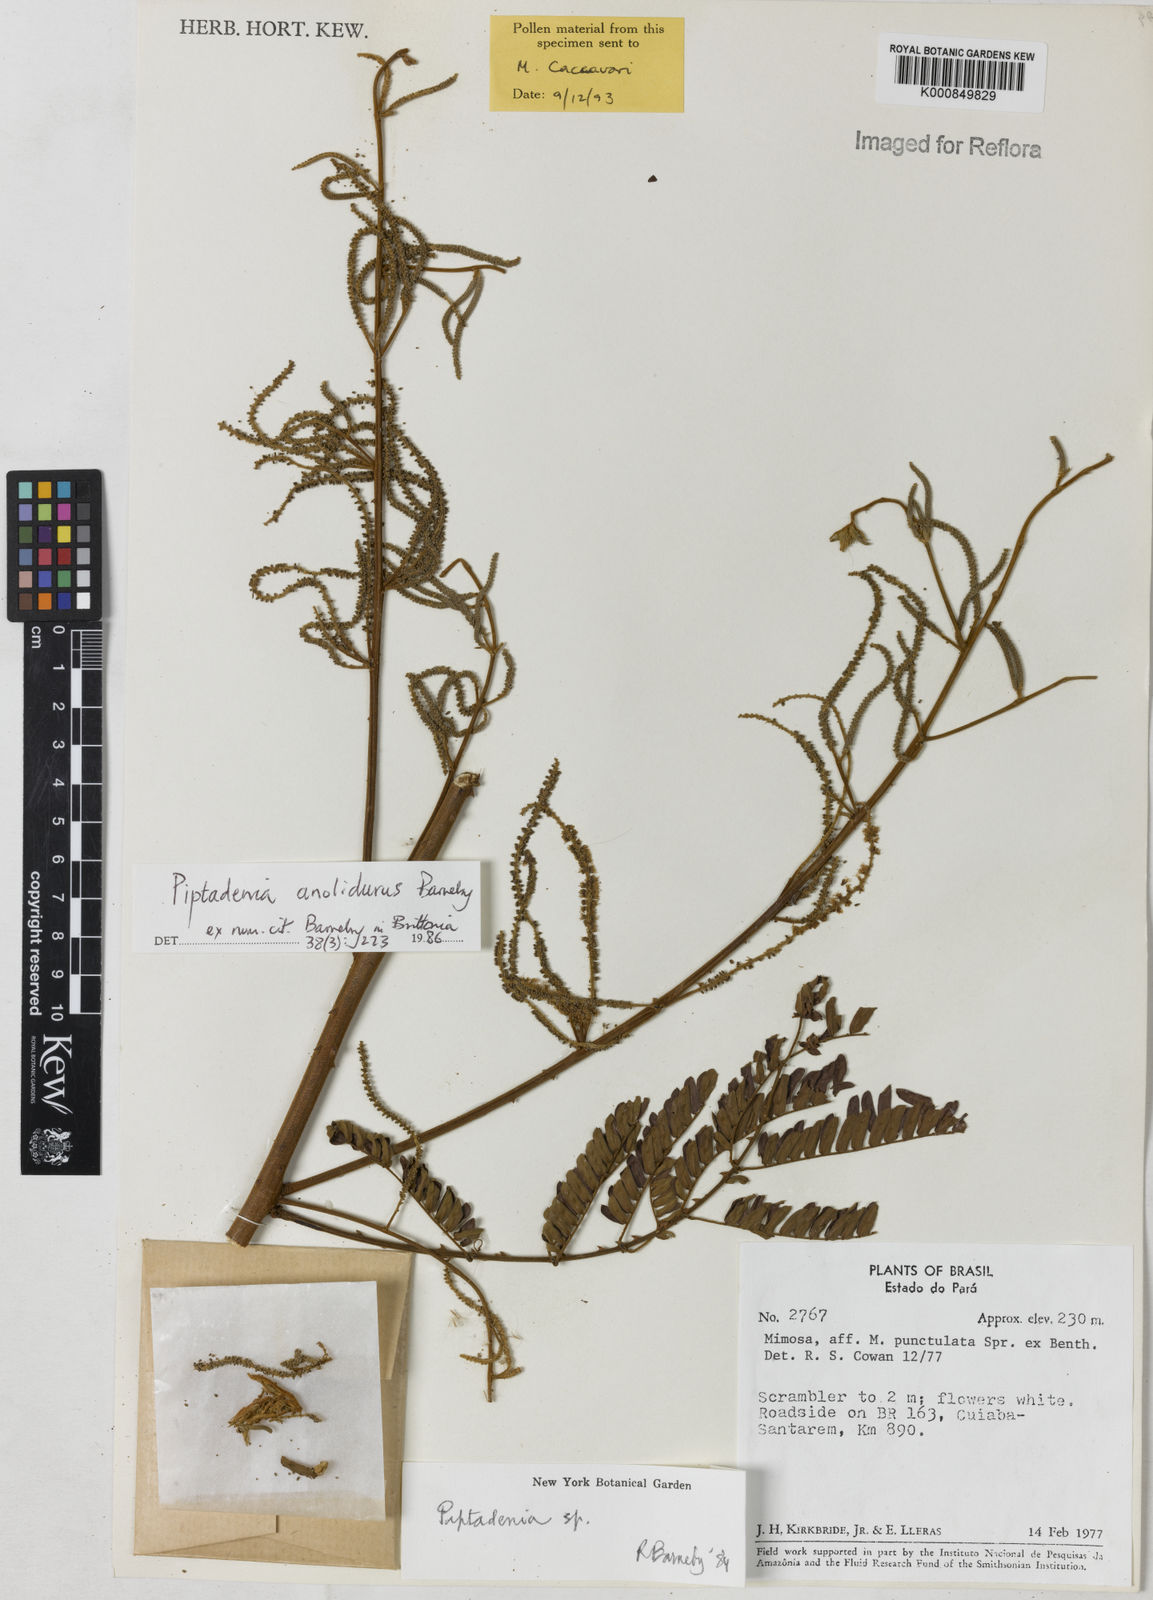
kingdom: Plantae
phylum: Tracheophyta
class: Magnoliopsida
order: Fabales
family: Fabaceae
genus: Piptadenia
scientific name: Piptadenia anolidurus
